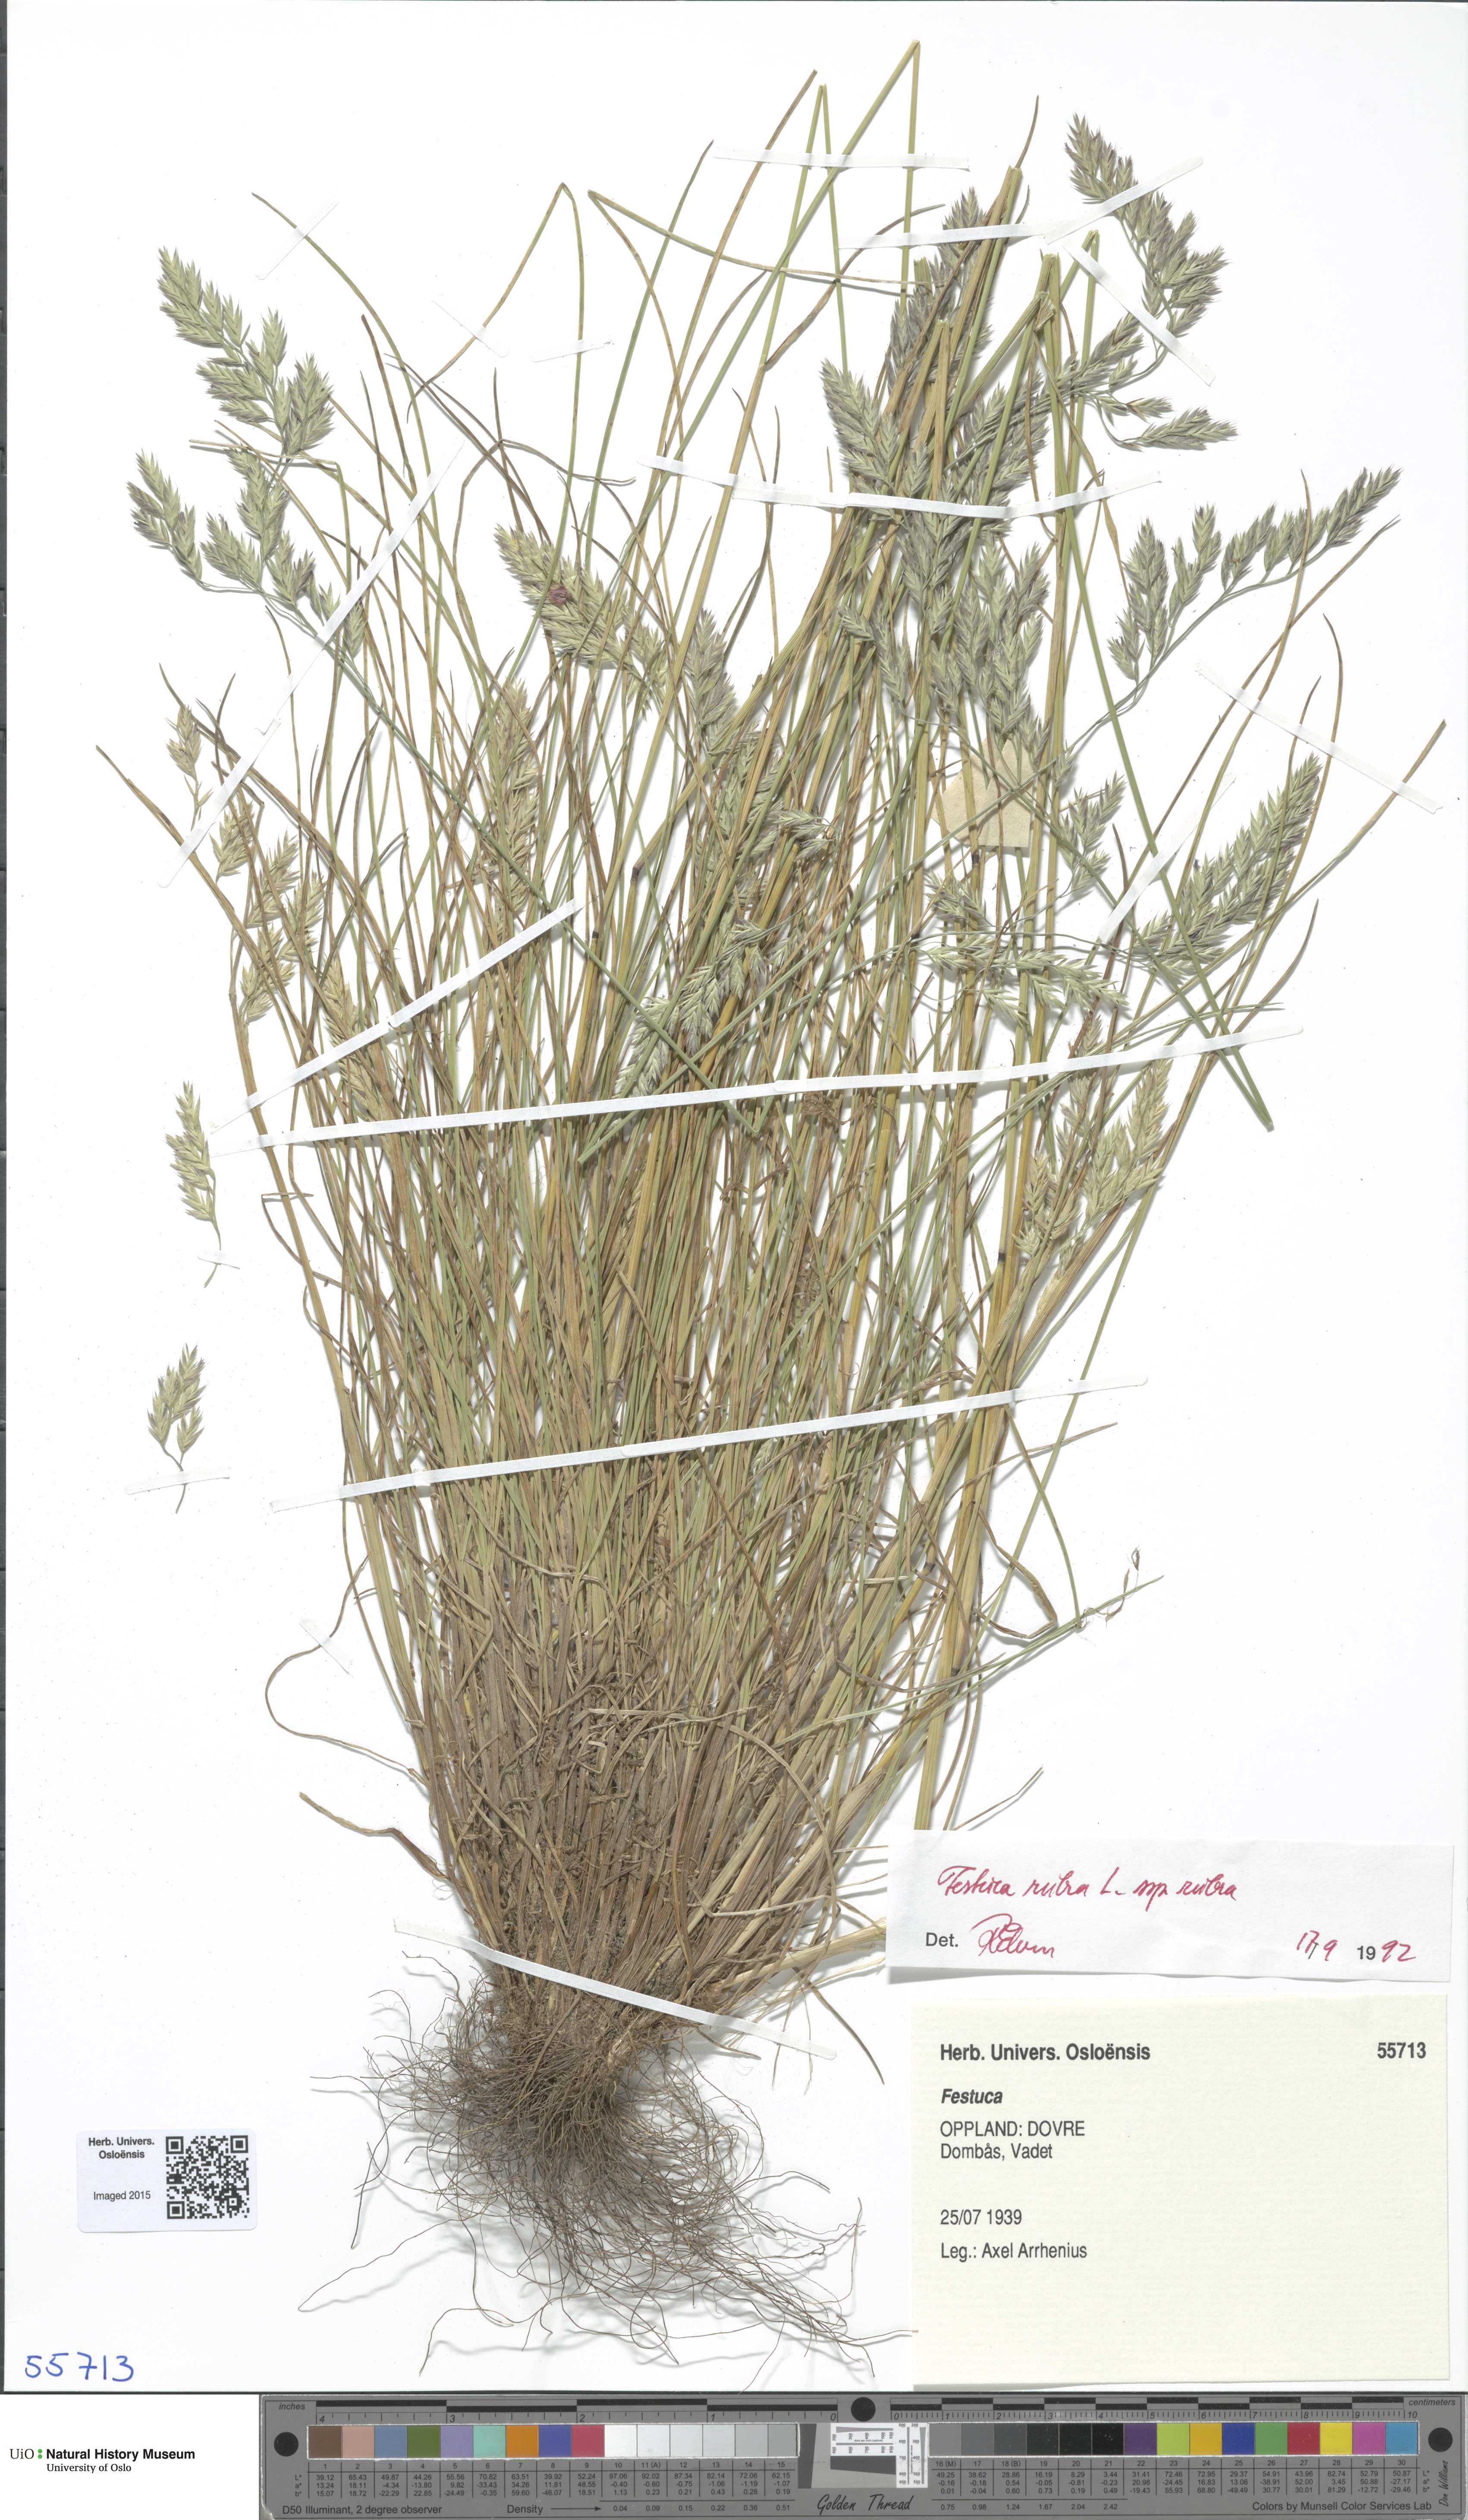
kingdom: Plantae
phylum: Tracheophyta
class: Liliopsida
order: Poales
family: Poaceae
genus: Festuca
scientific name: Festuca rubra
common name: Red fescue
